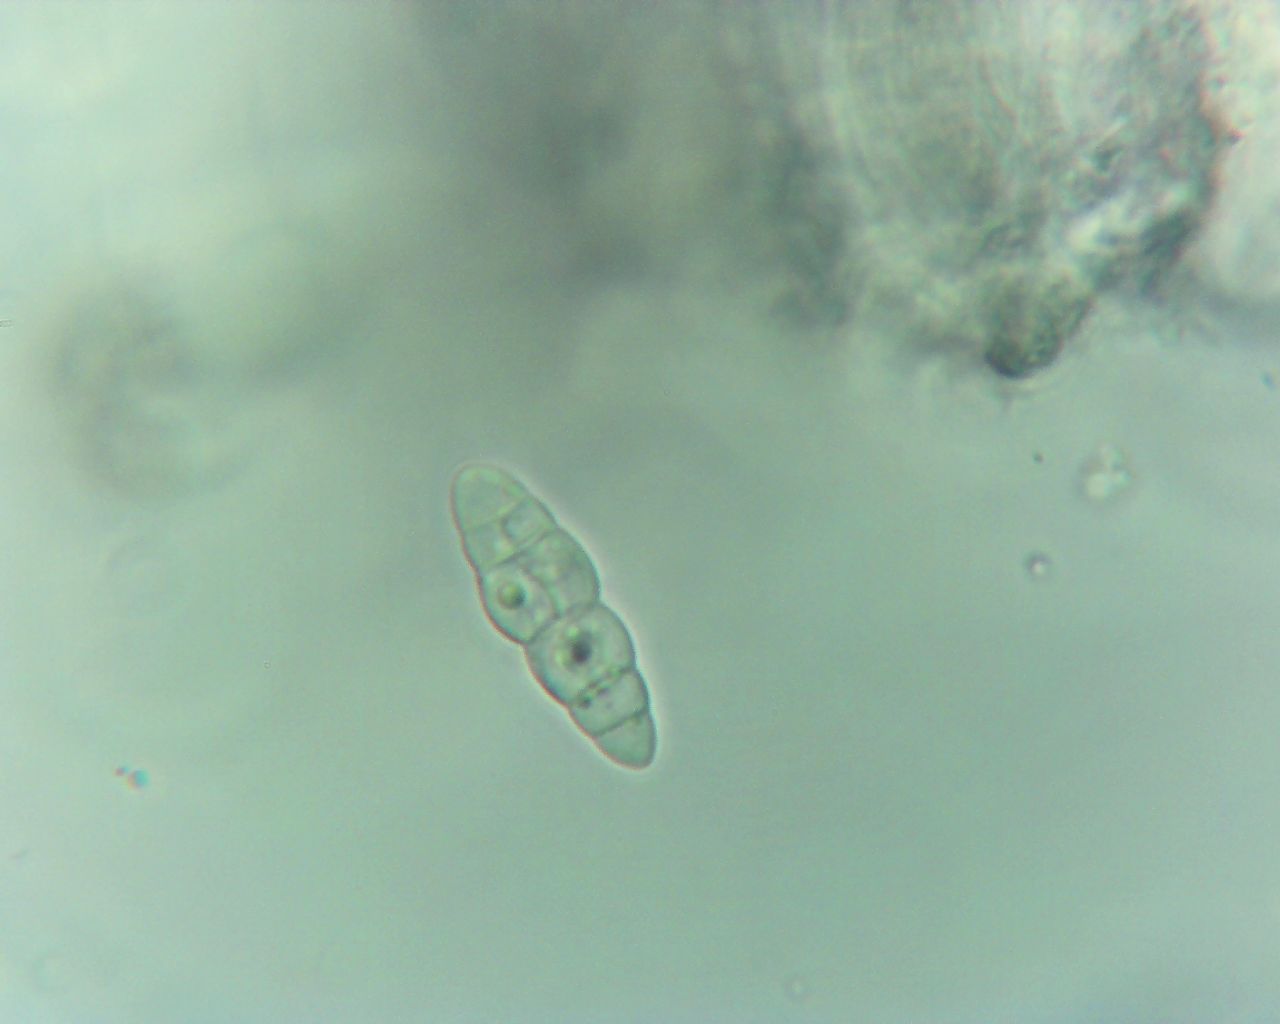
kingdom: Fungi
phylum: Ascomycota
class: Dothideomycetes
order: Hysteriales
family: Hysteriaceae
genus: Gloniopsis
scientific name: Gloniopsis praelonga
